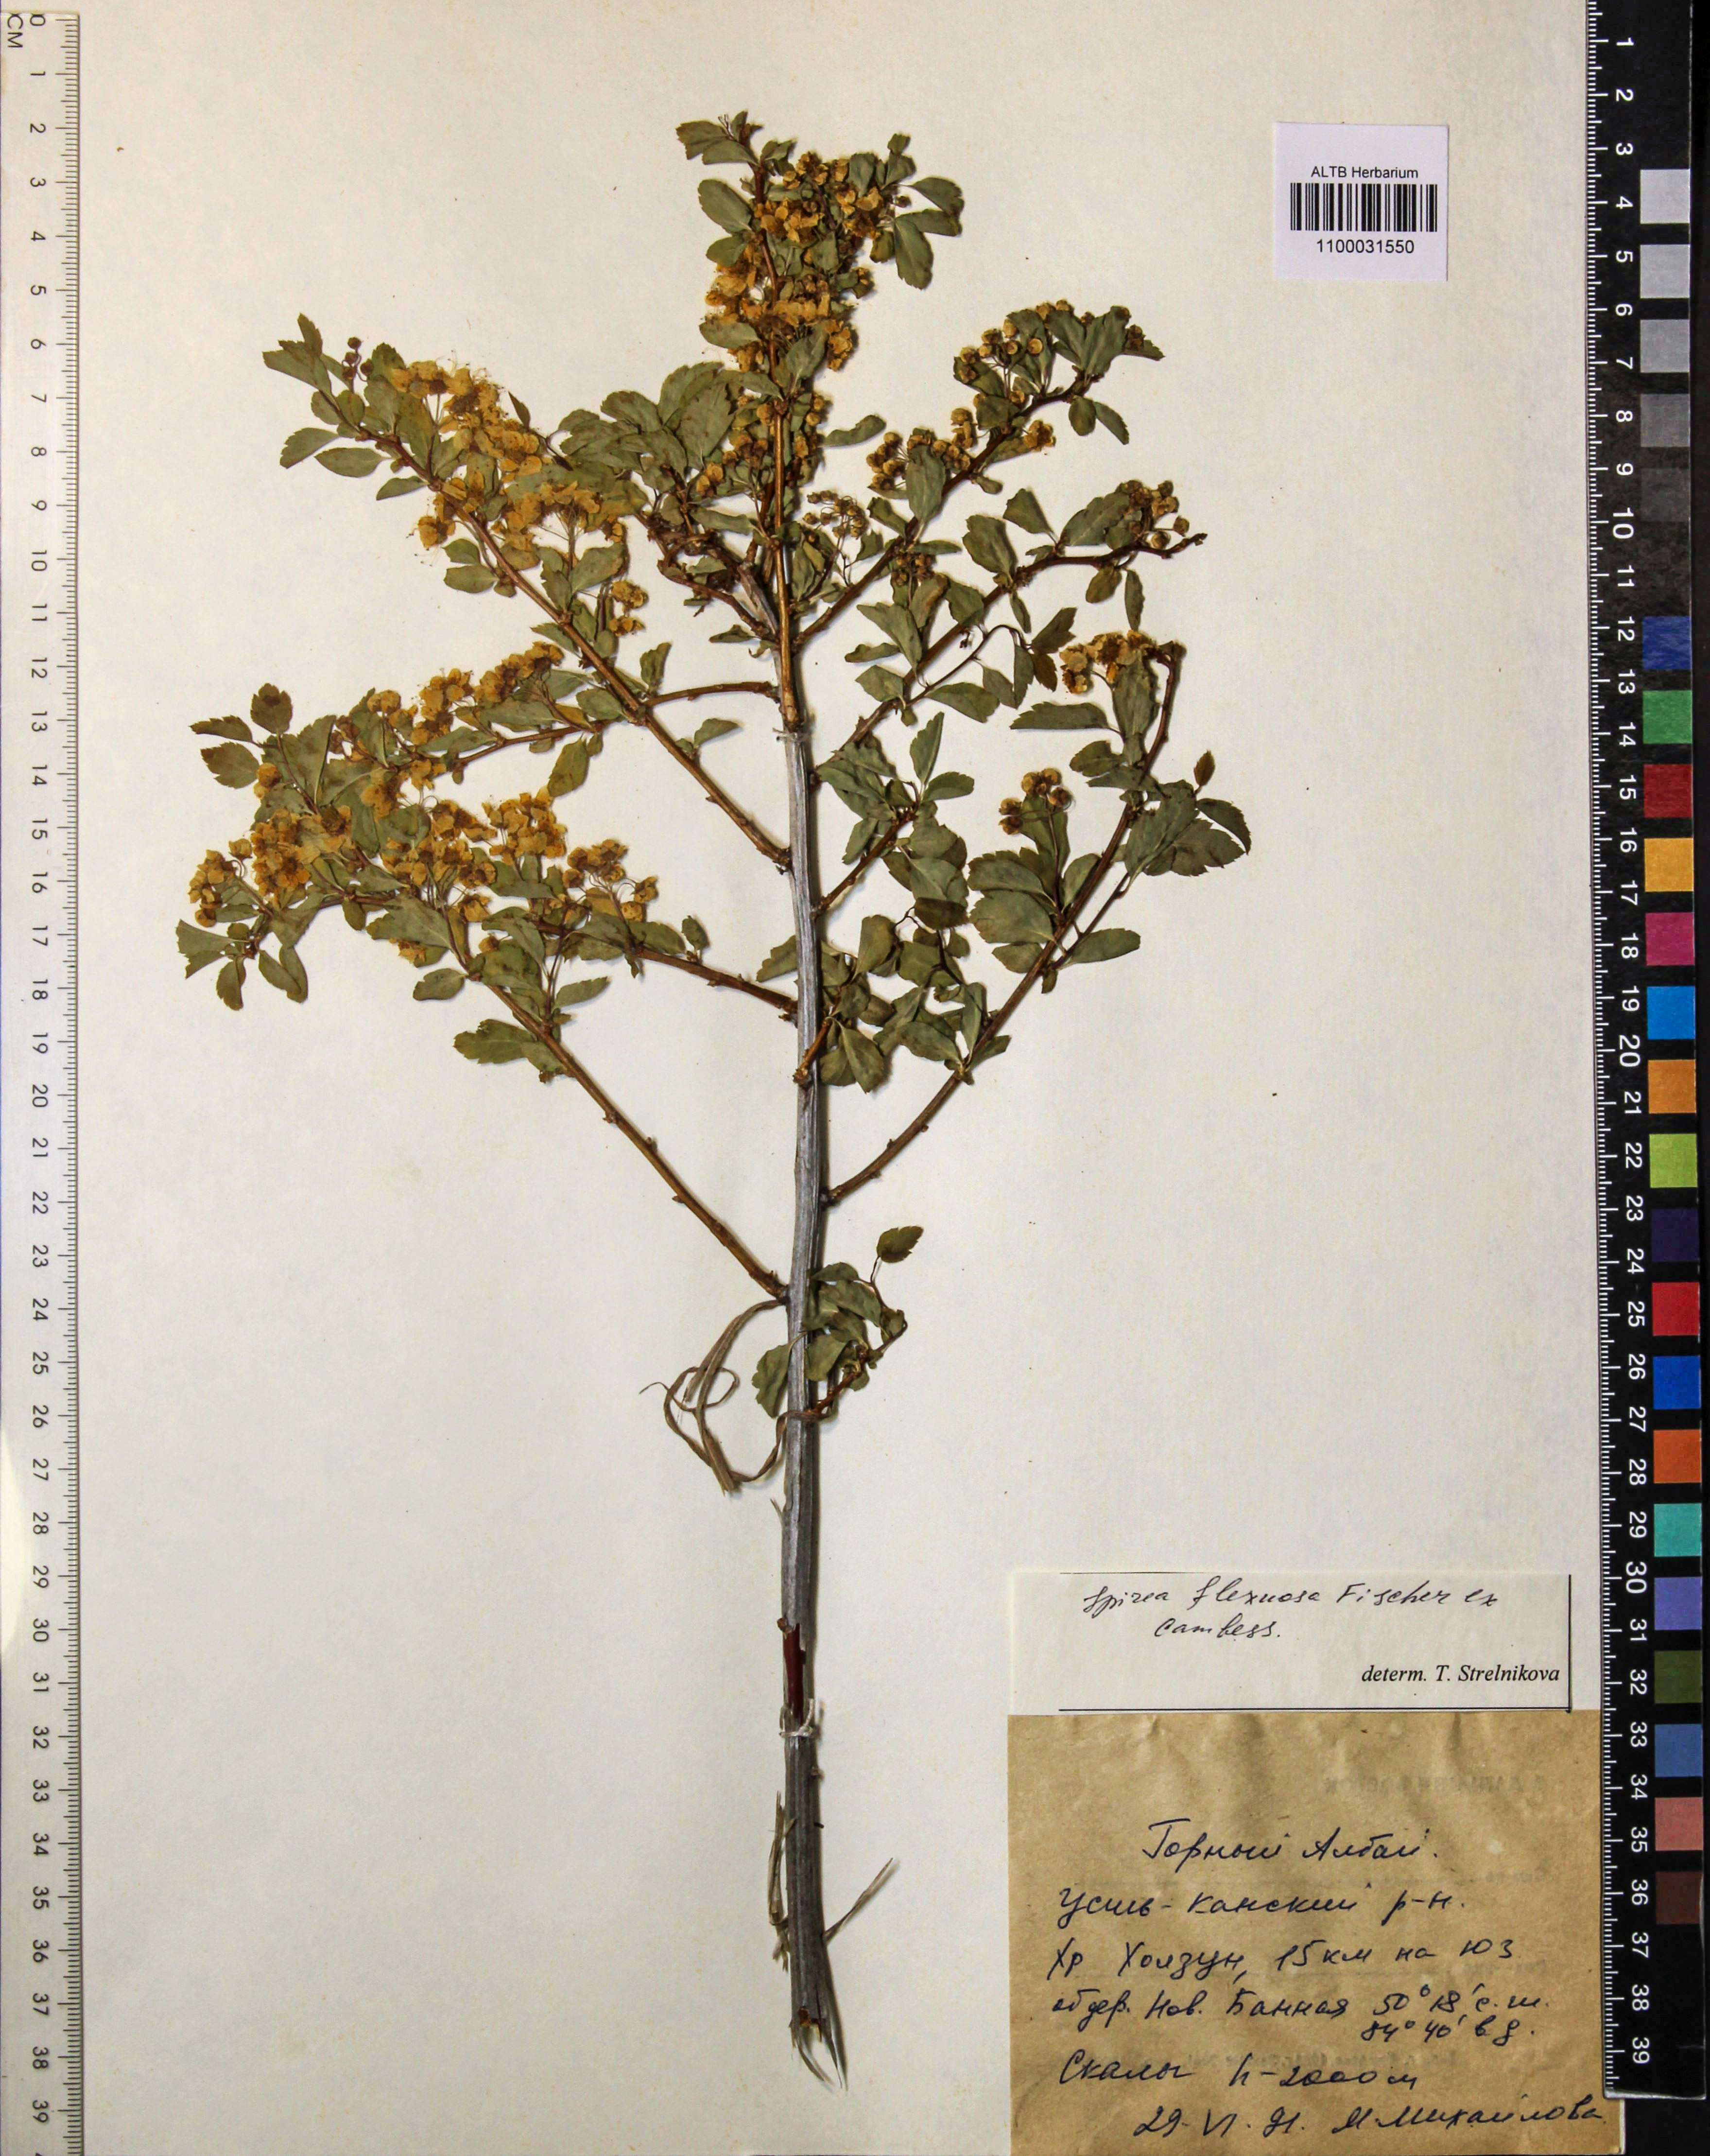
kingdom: Plantae
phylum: Tracheophyta
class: Magnoliopsida
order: Rosales
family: Rosaceae
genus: Spiraea
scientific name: Spiraea flexuosa
